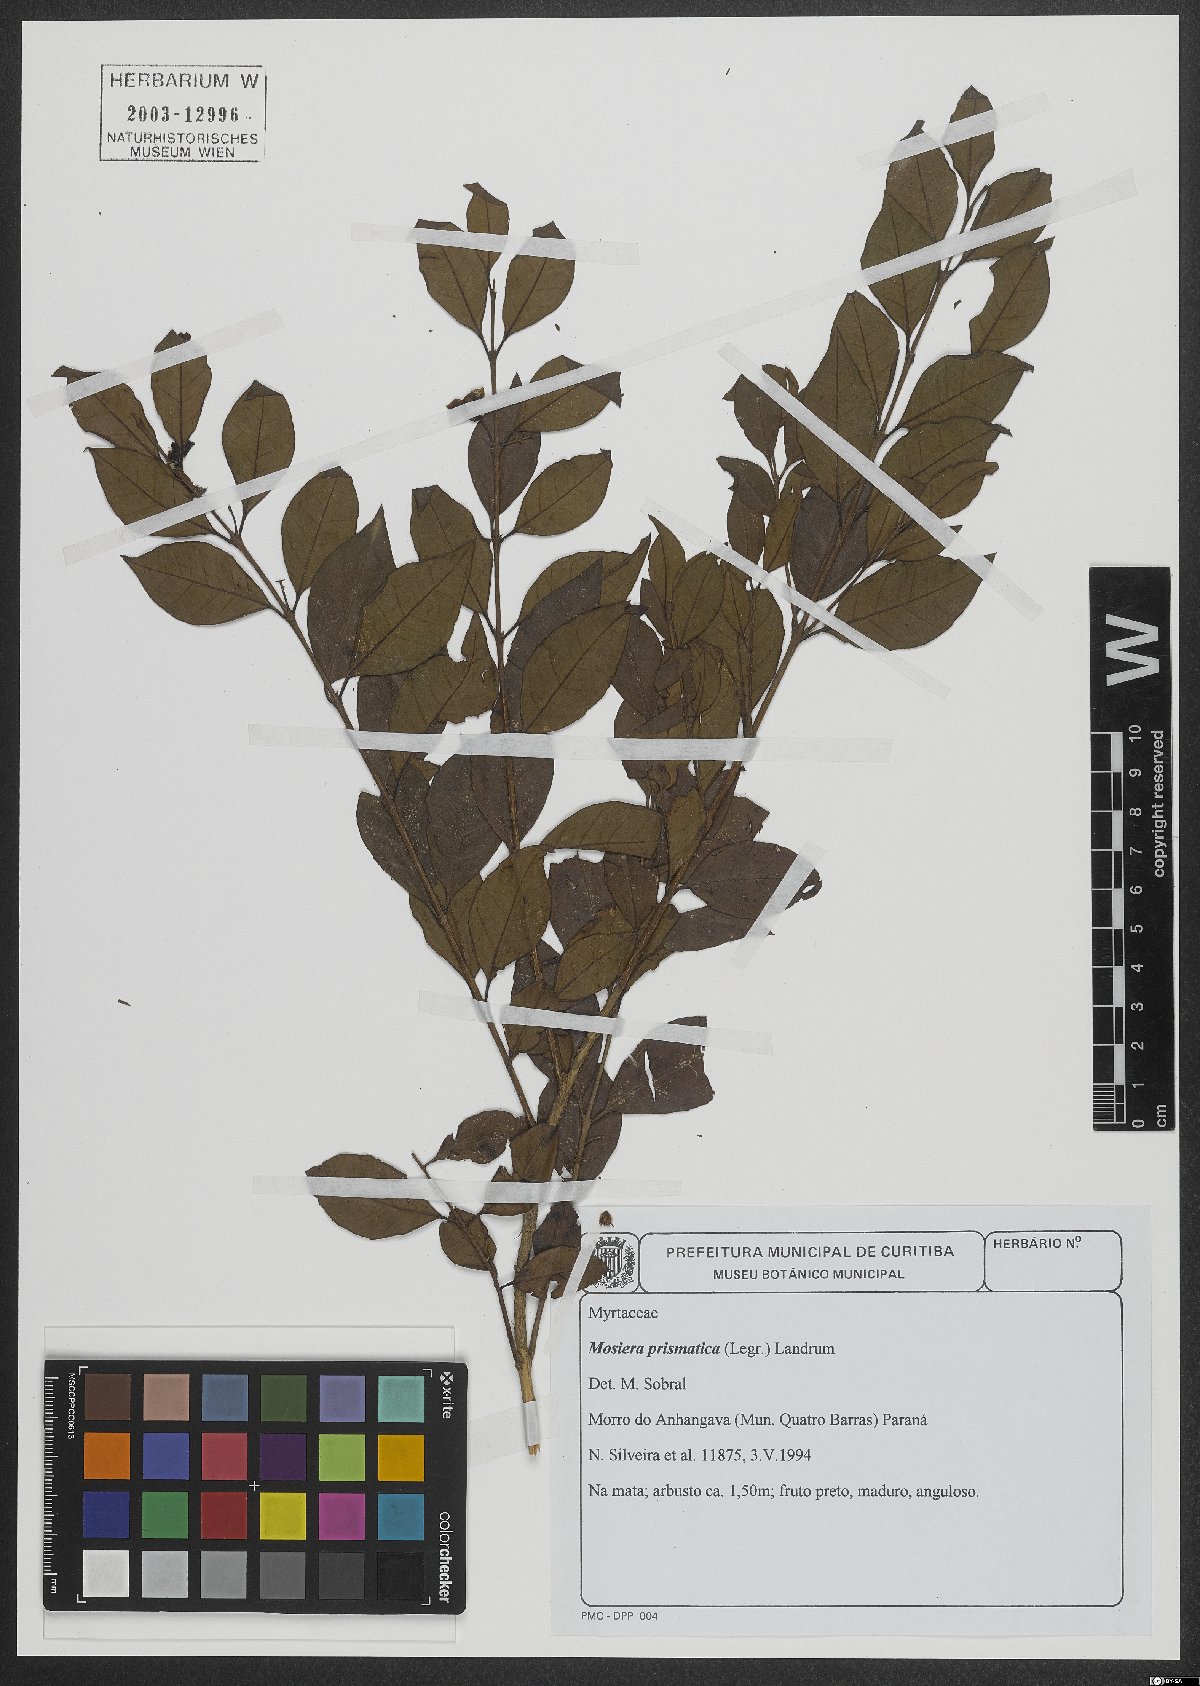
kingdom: Plantae
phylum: Tracheophyta
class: Magnoliopsida
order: Myrtales
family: Myrtaceae
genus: Curitiba
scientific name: Curitiba prismatica
